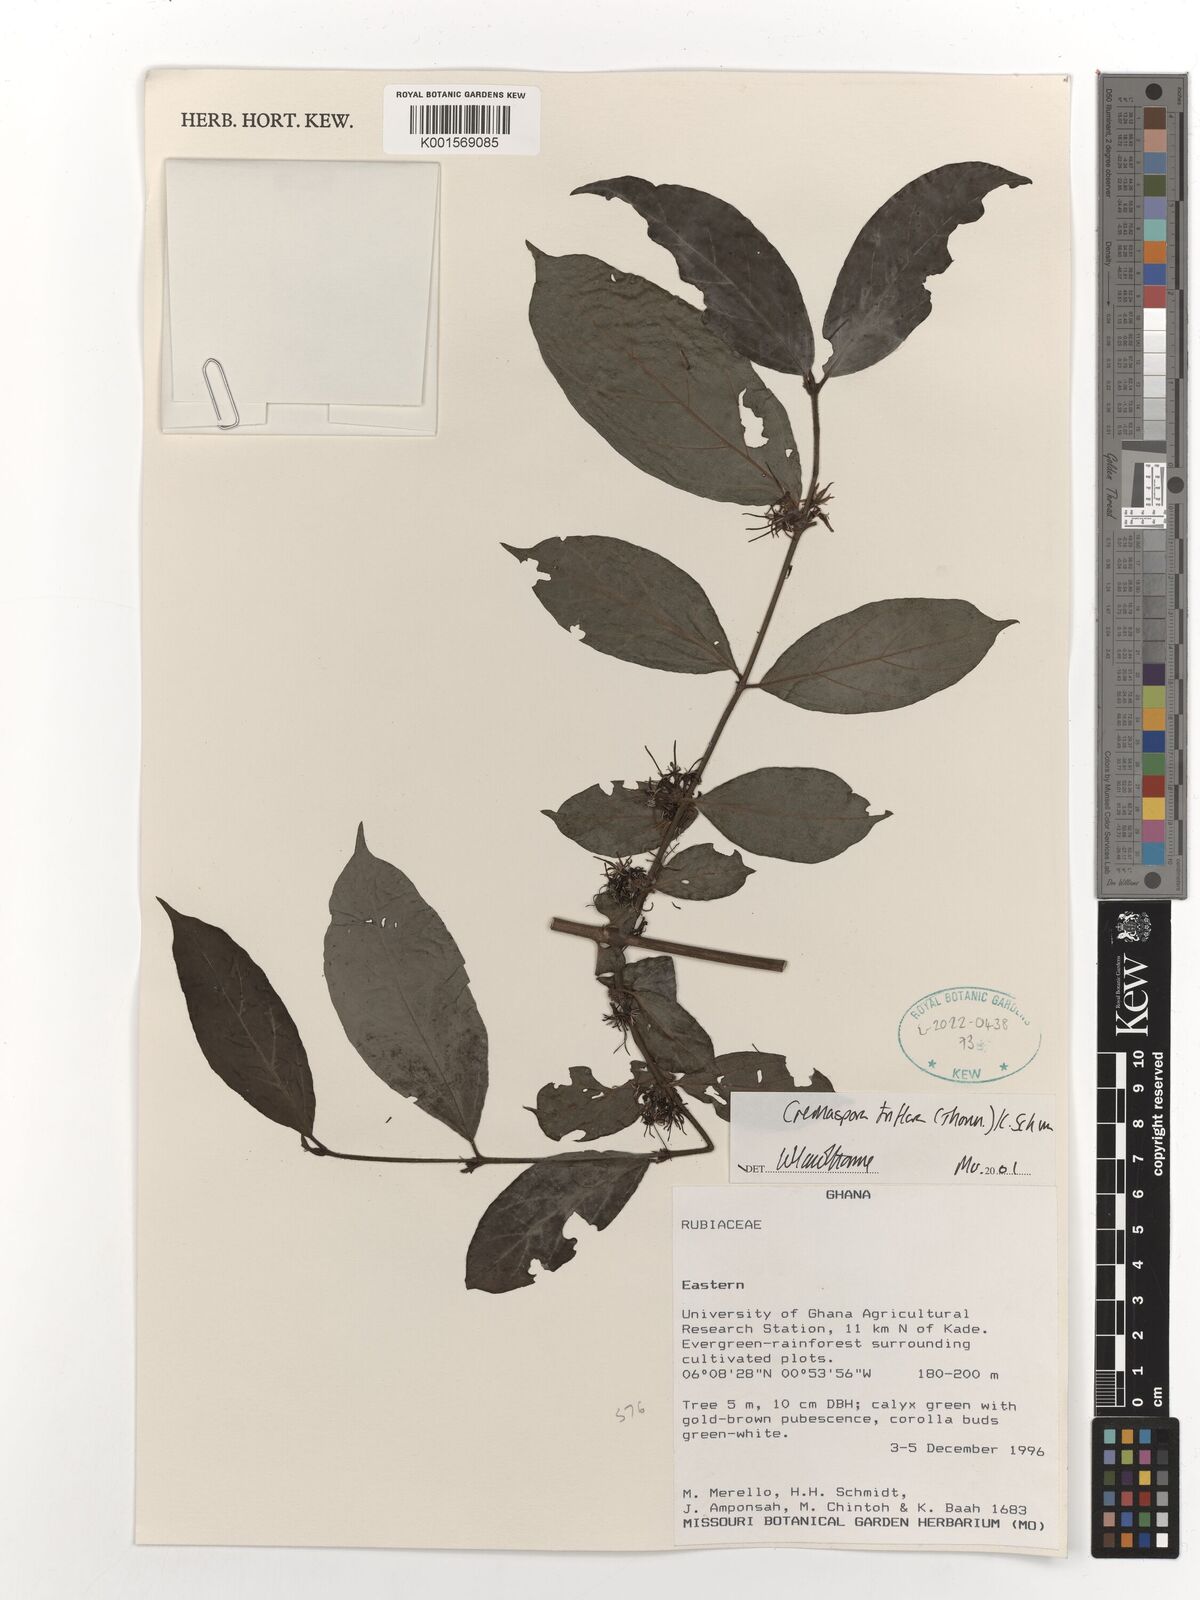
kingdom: Plantae
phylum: Tracheophyta
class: Magnoliopsida
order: Gentianales
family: Rubiaceae
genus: Cremaspora
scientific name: Cremaspora triflora
